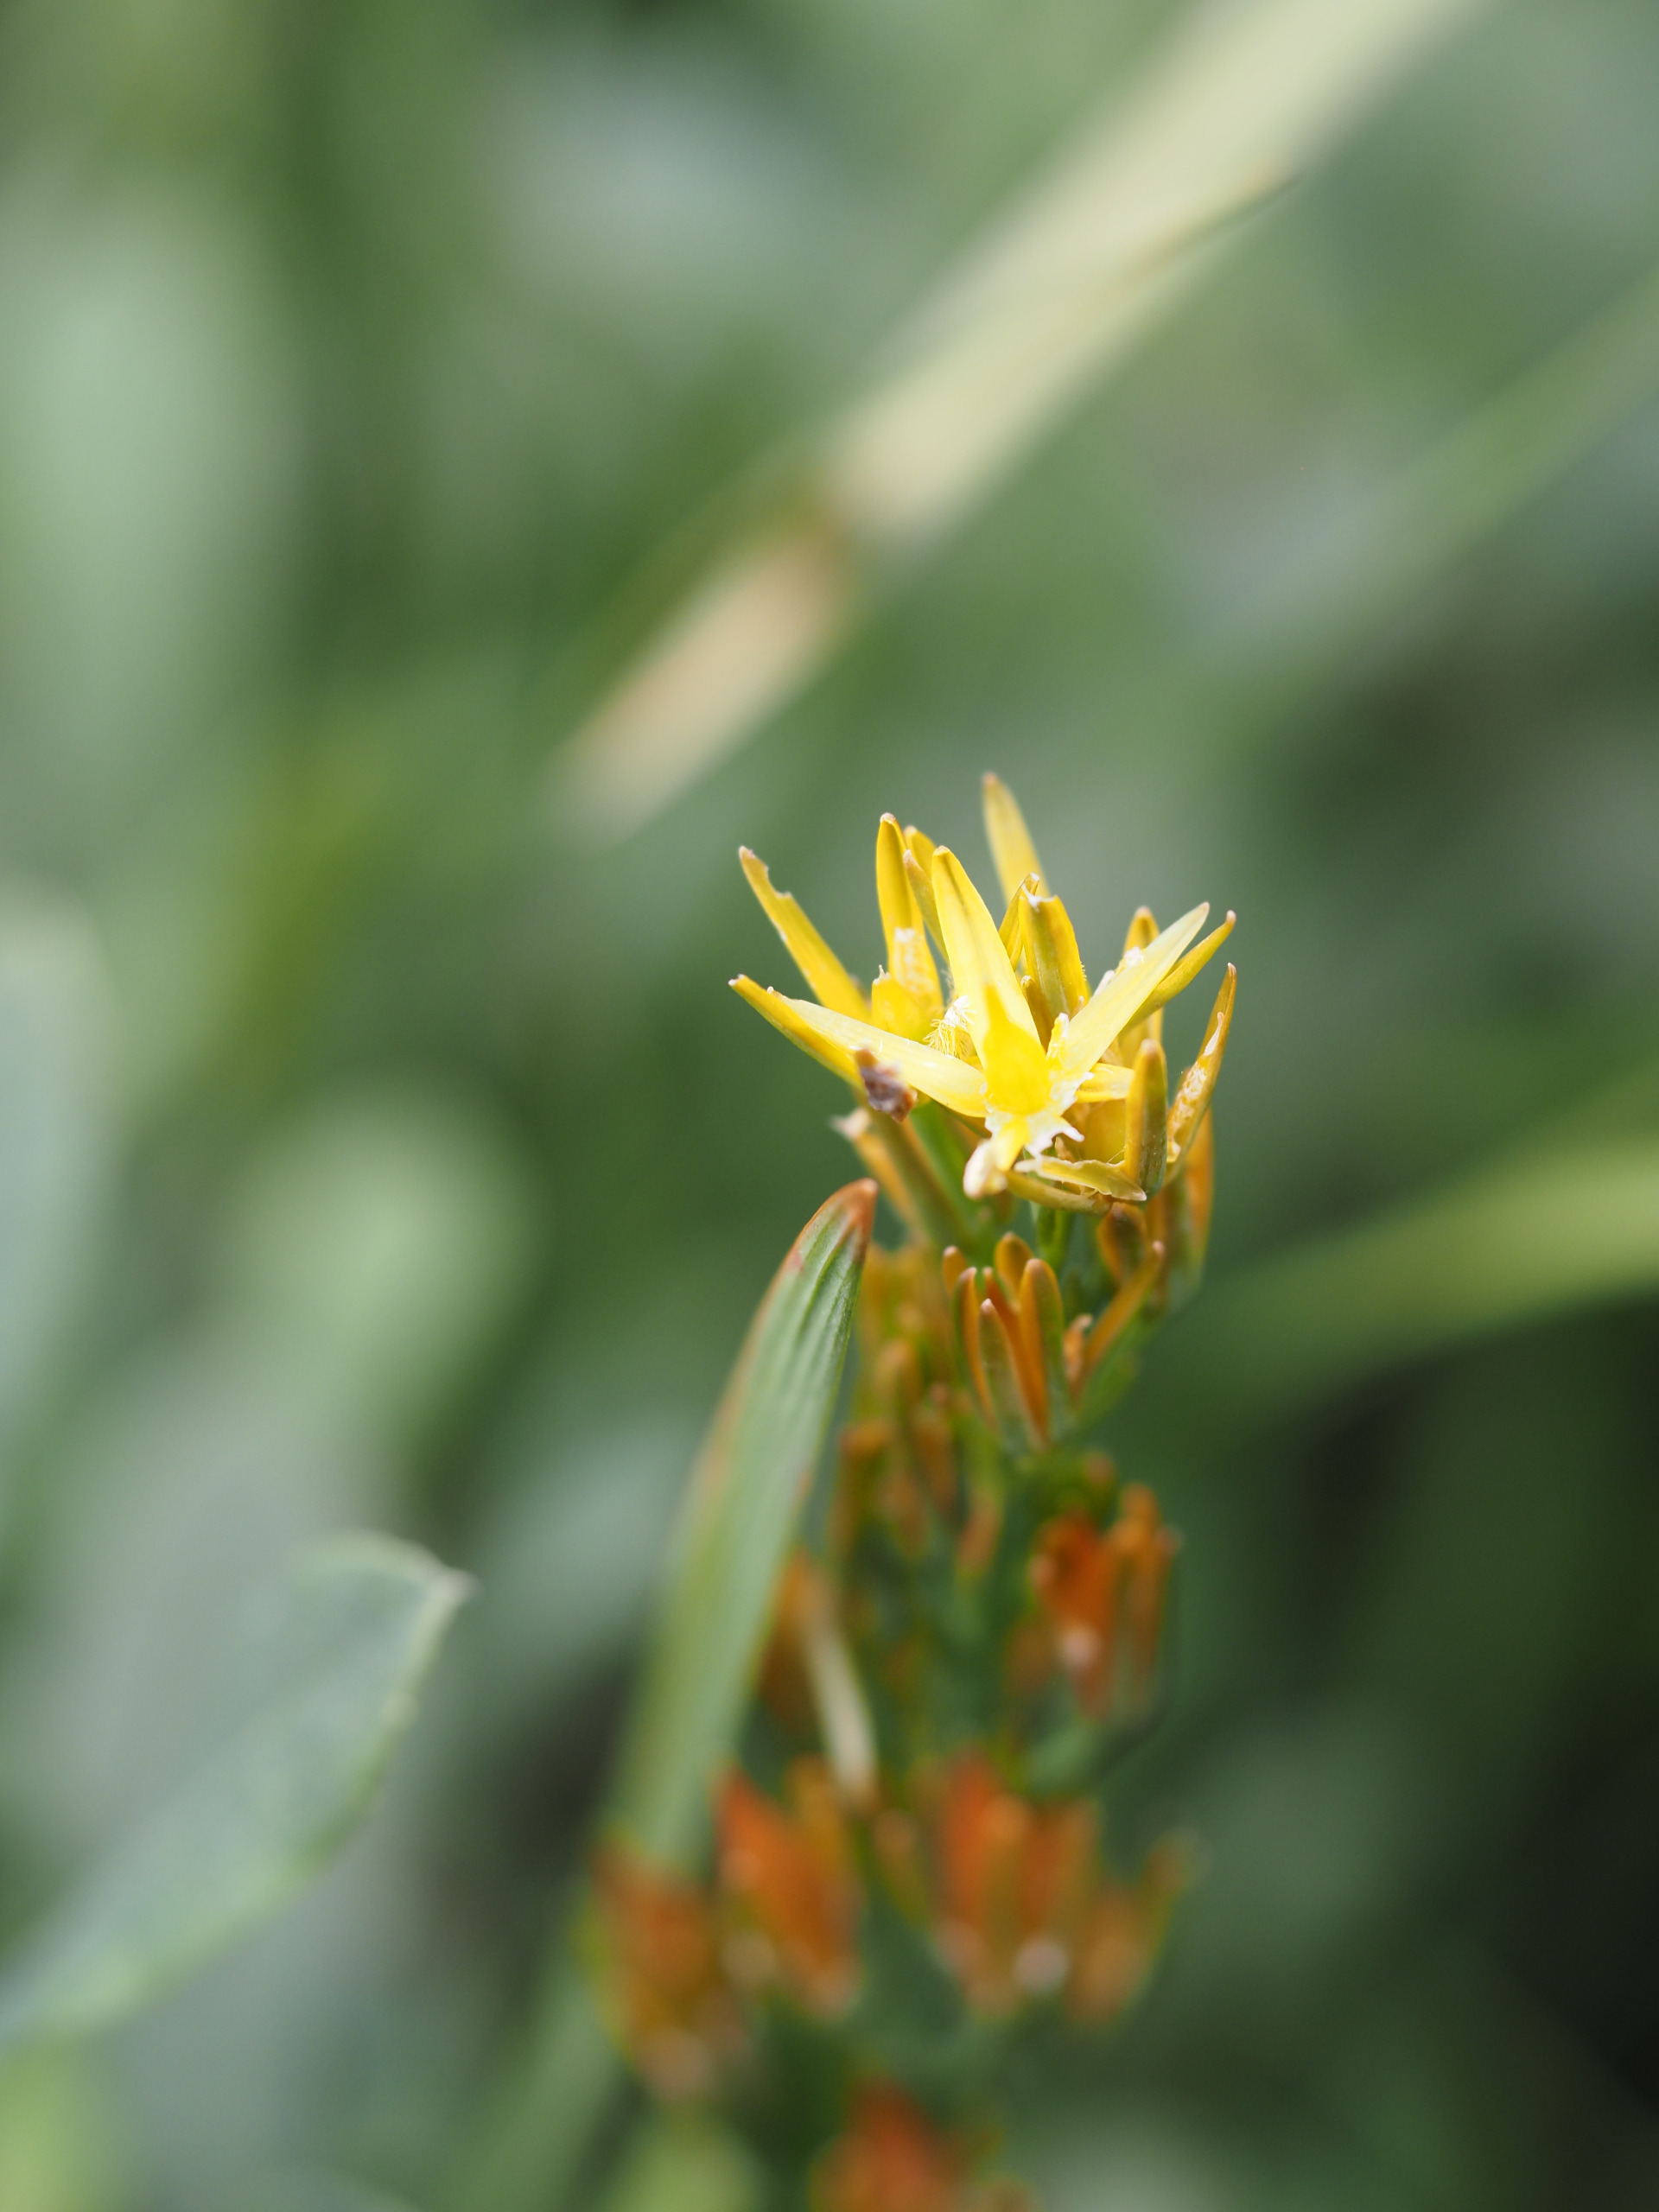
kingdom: Plantae
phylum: Tracheophyta
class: Liliopsida
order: Dioscoreales
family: Nartheciaceae
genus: Narthecium
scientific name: Narthecium ossifragum
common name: Benbræk
